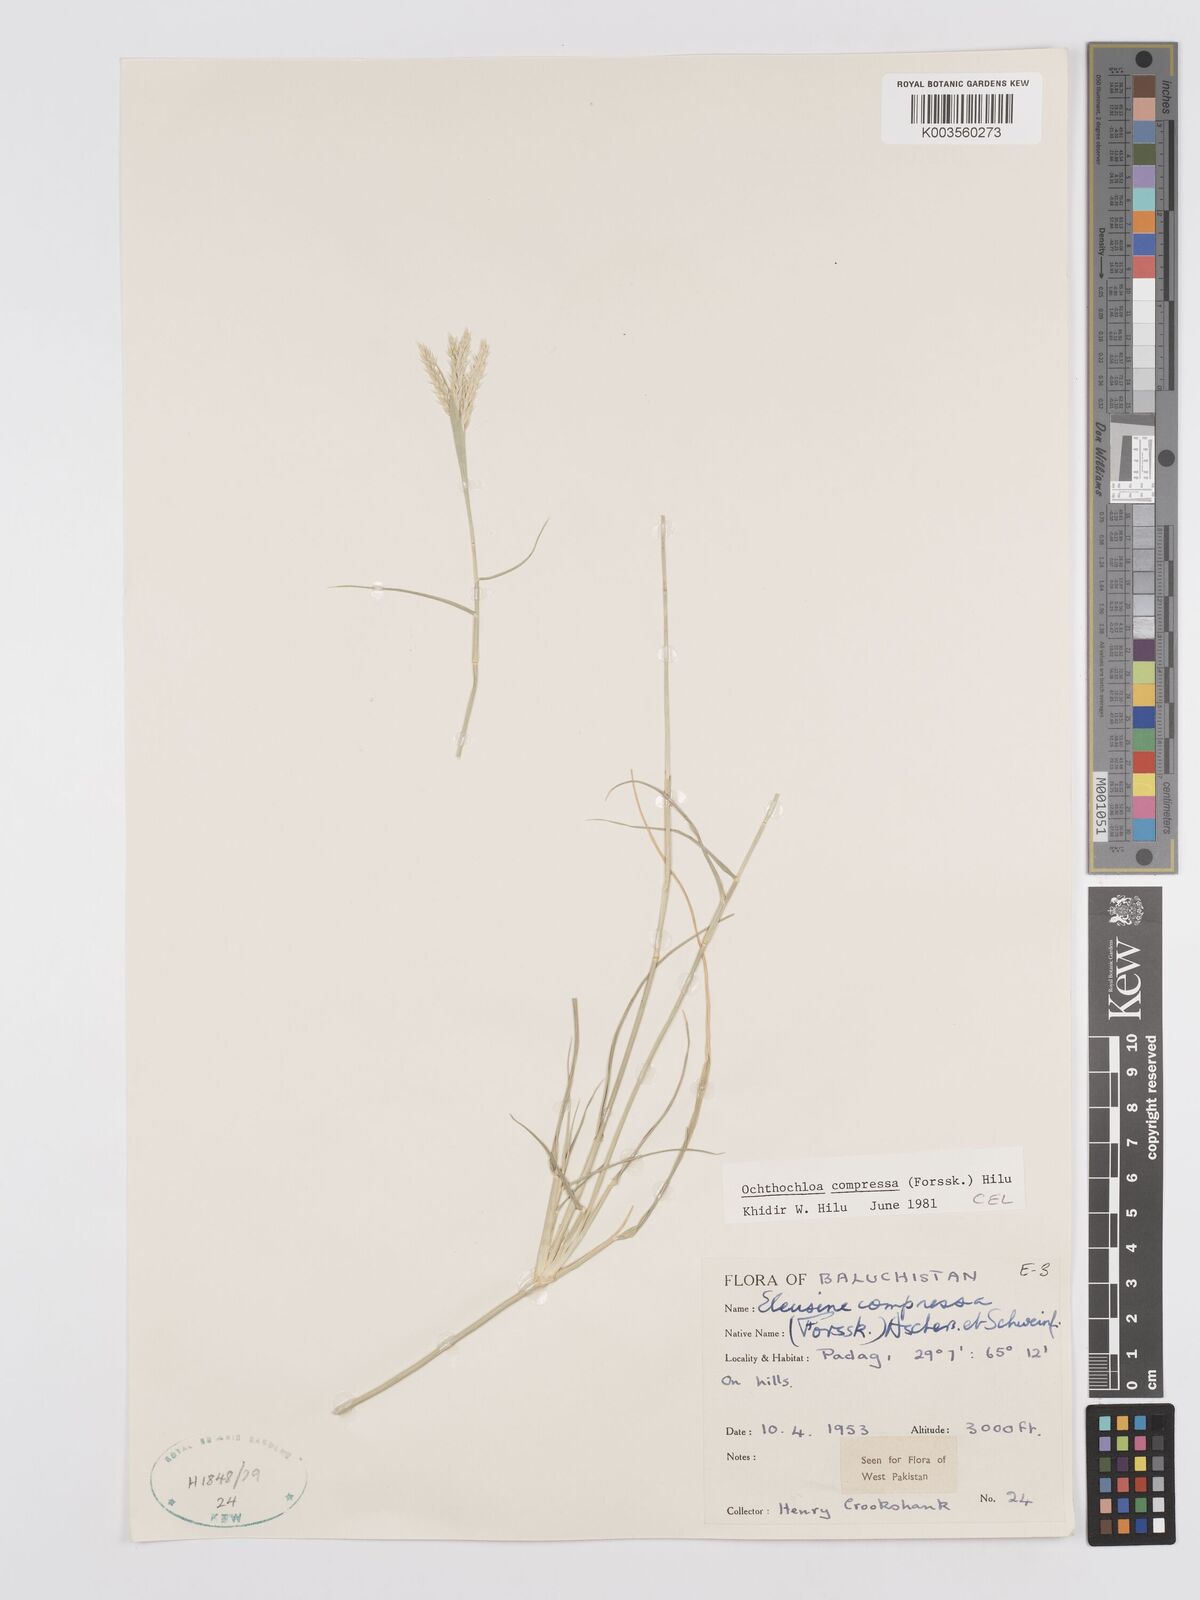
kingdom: Plantae
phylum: Tracheophyta
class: Liliopsida
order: Poales
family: Poaceae
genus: Chloris
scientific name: Chloris flagellifera
